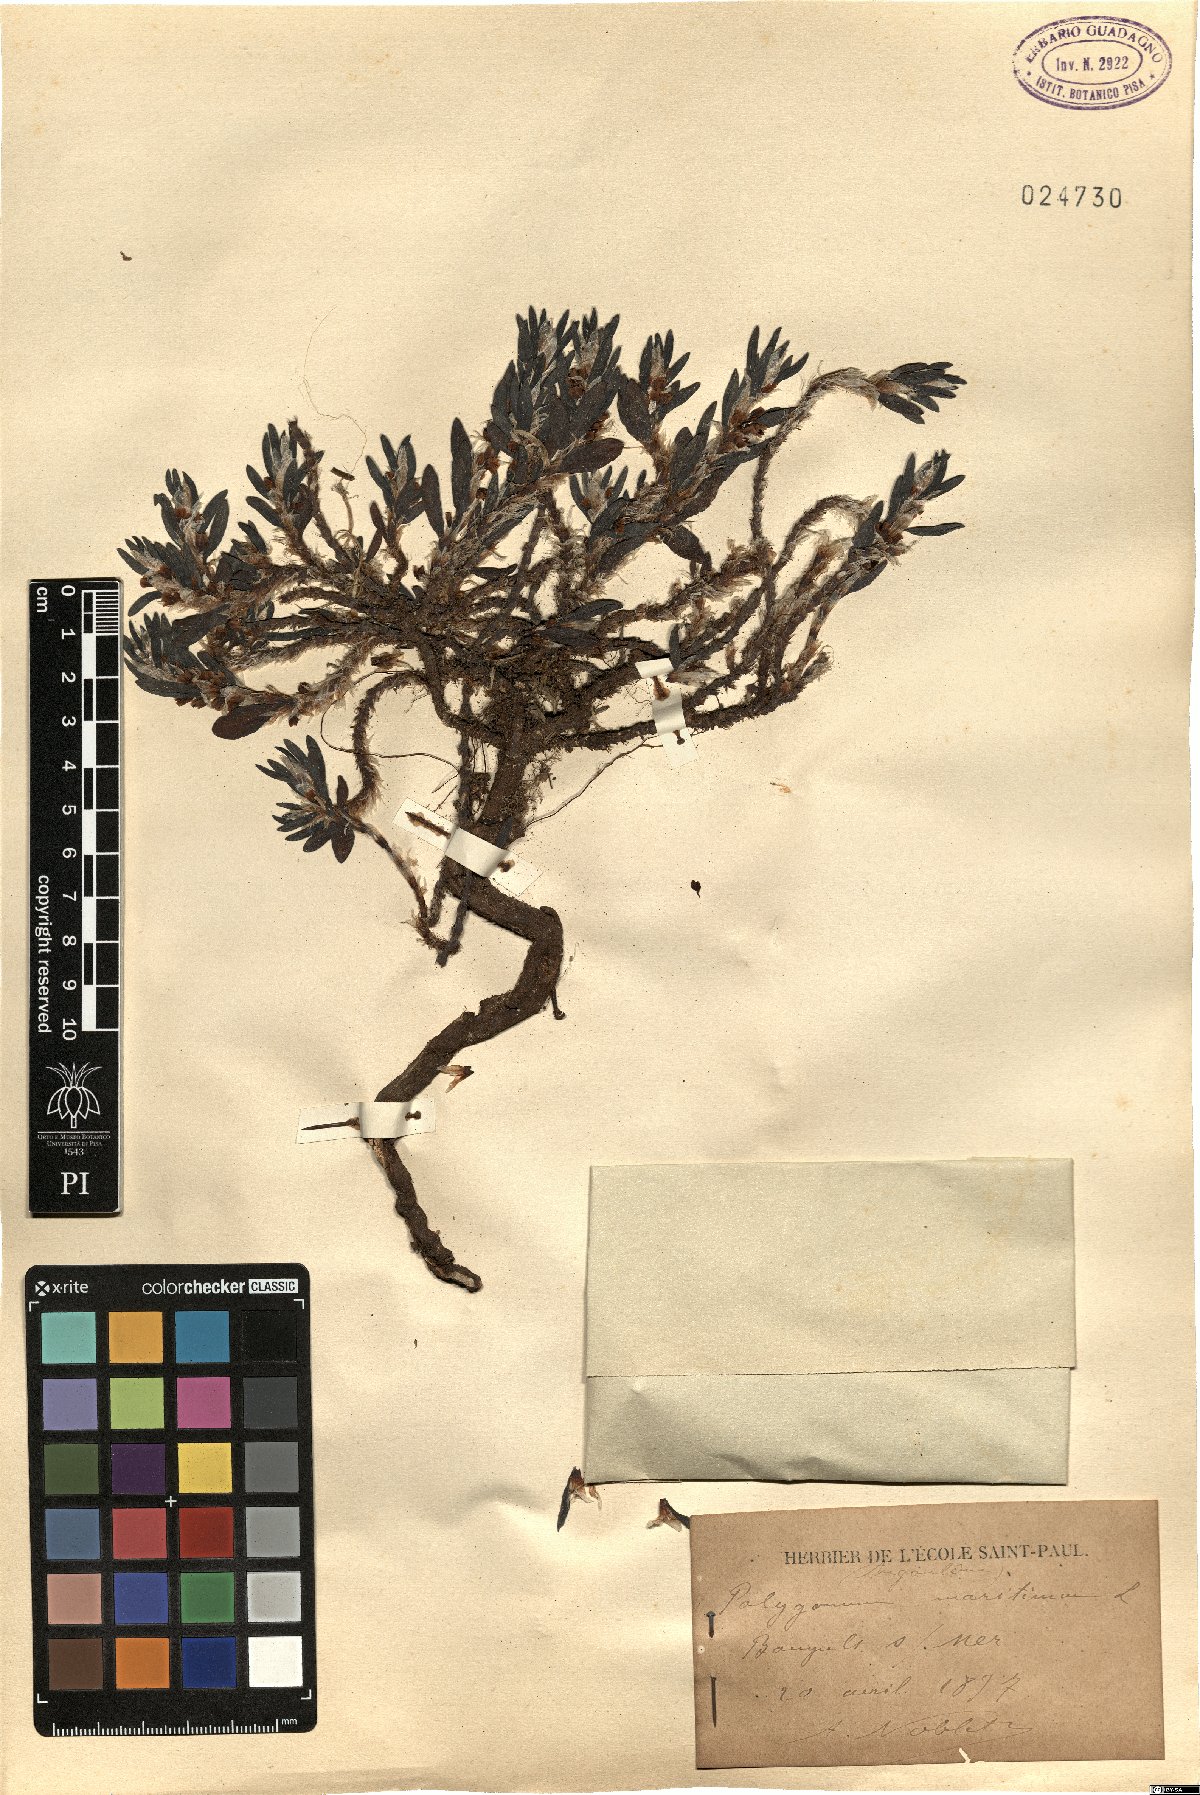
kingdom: Plantae
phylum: Tracheophyta
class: Magnoliopsida
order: Caryophyllales
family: Polygonaceae
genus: Polygonum
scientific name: Polygonum maritimum
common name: Sea knotgrass
